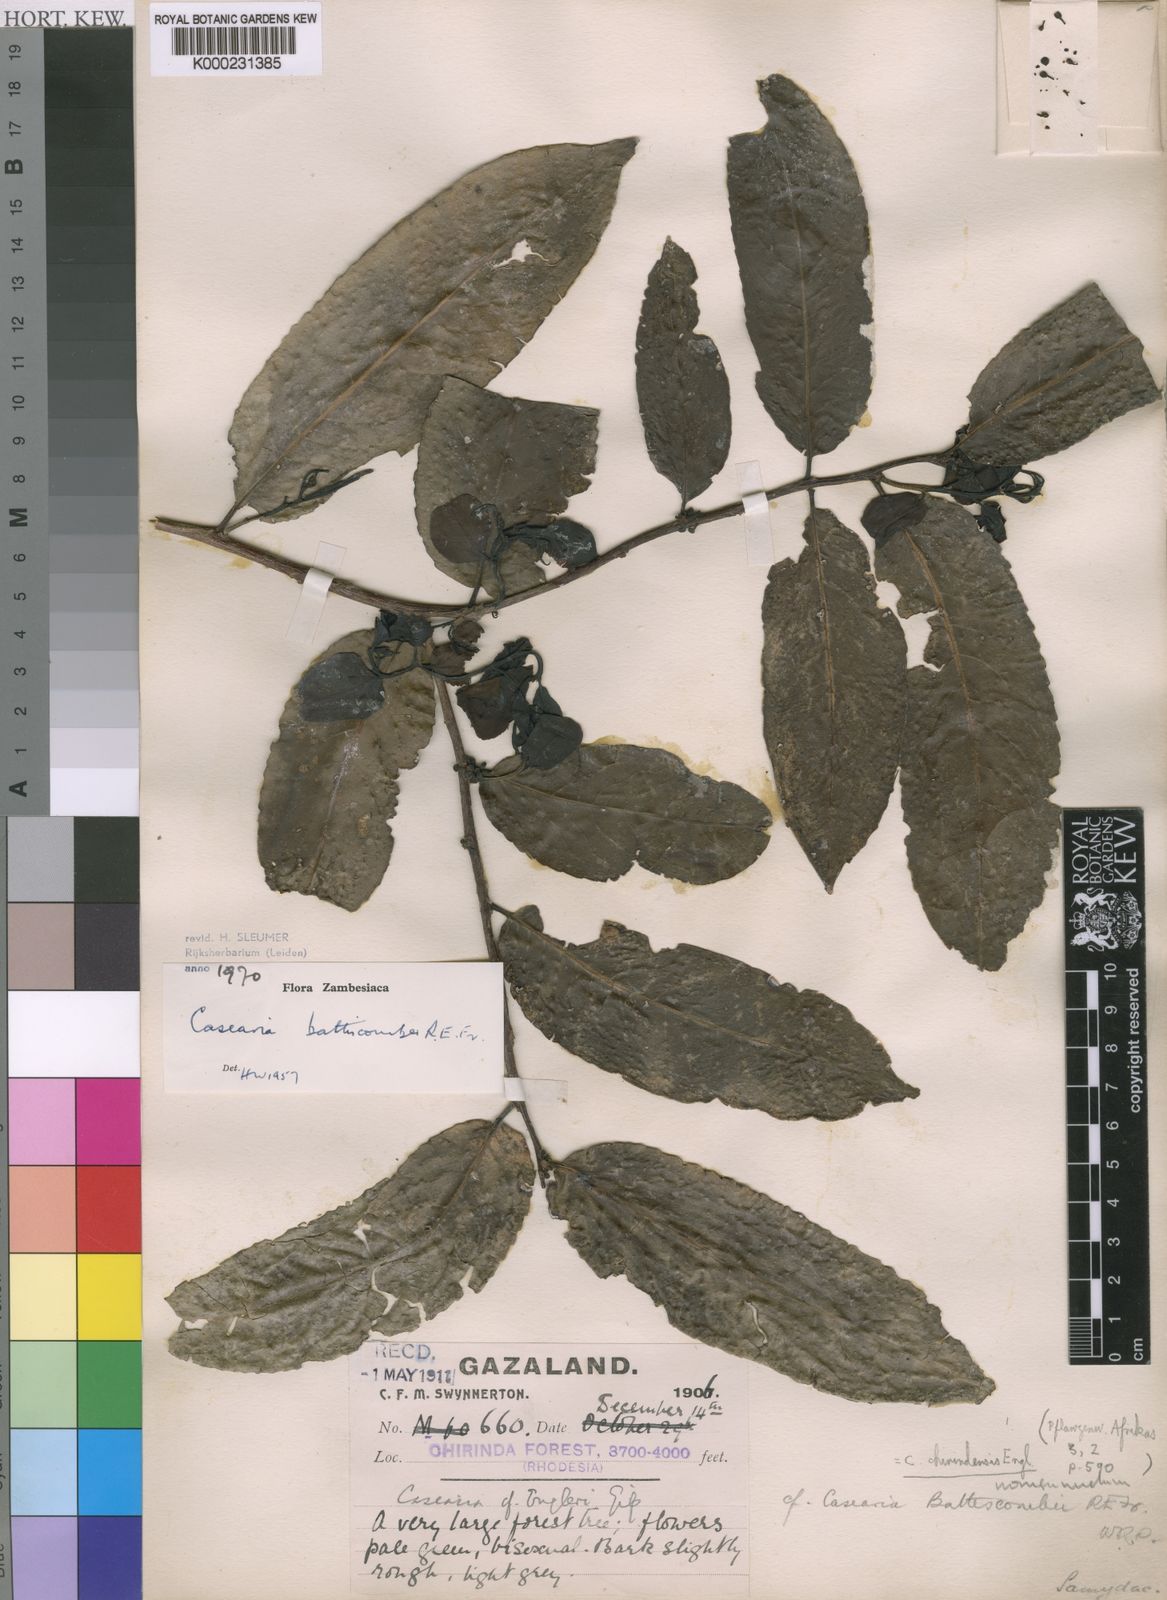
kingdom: Plantae
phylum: Tracheophyta
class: Magnoliopsida
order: Malpighiales
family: Salicaceae
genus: Casearia
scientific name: Casearia battiscombei
